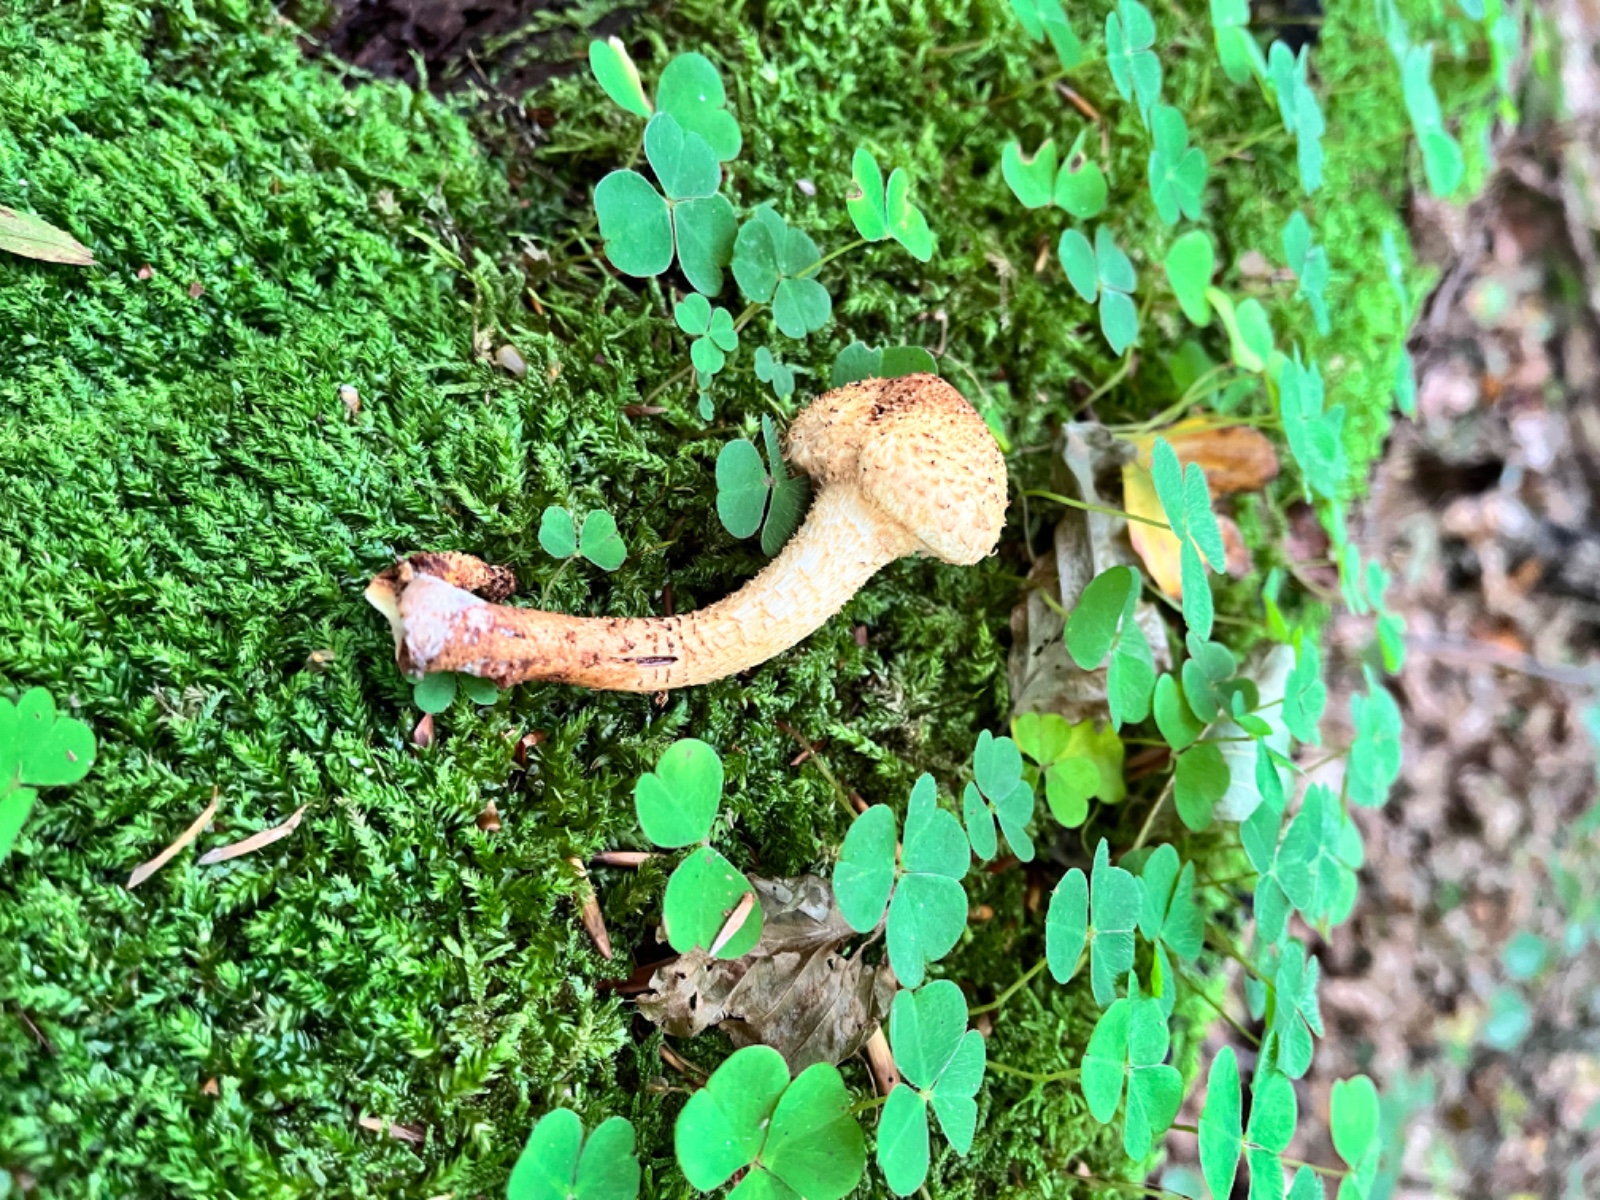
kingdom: Fungi
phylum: Basidiomycota
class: Agaricomycetes
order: Agaricales
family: Strophariaceae
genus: Pholiota
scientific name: Pholiota squarrosa
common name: krumskællet skælhat
